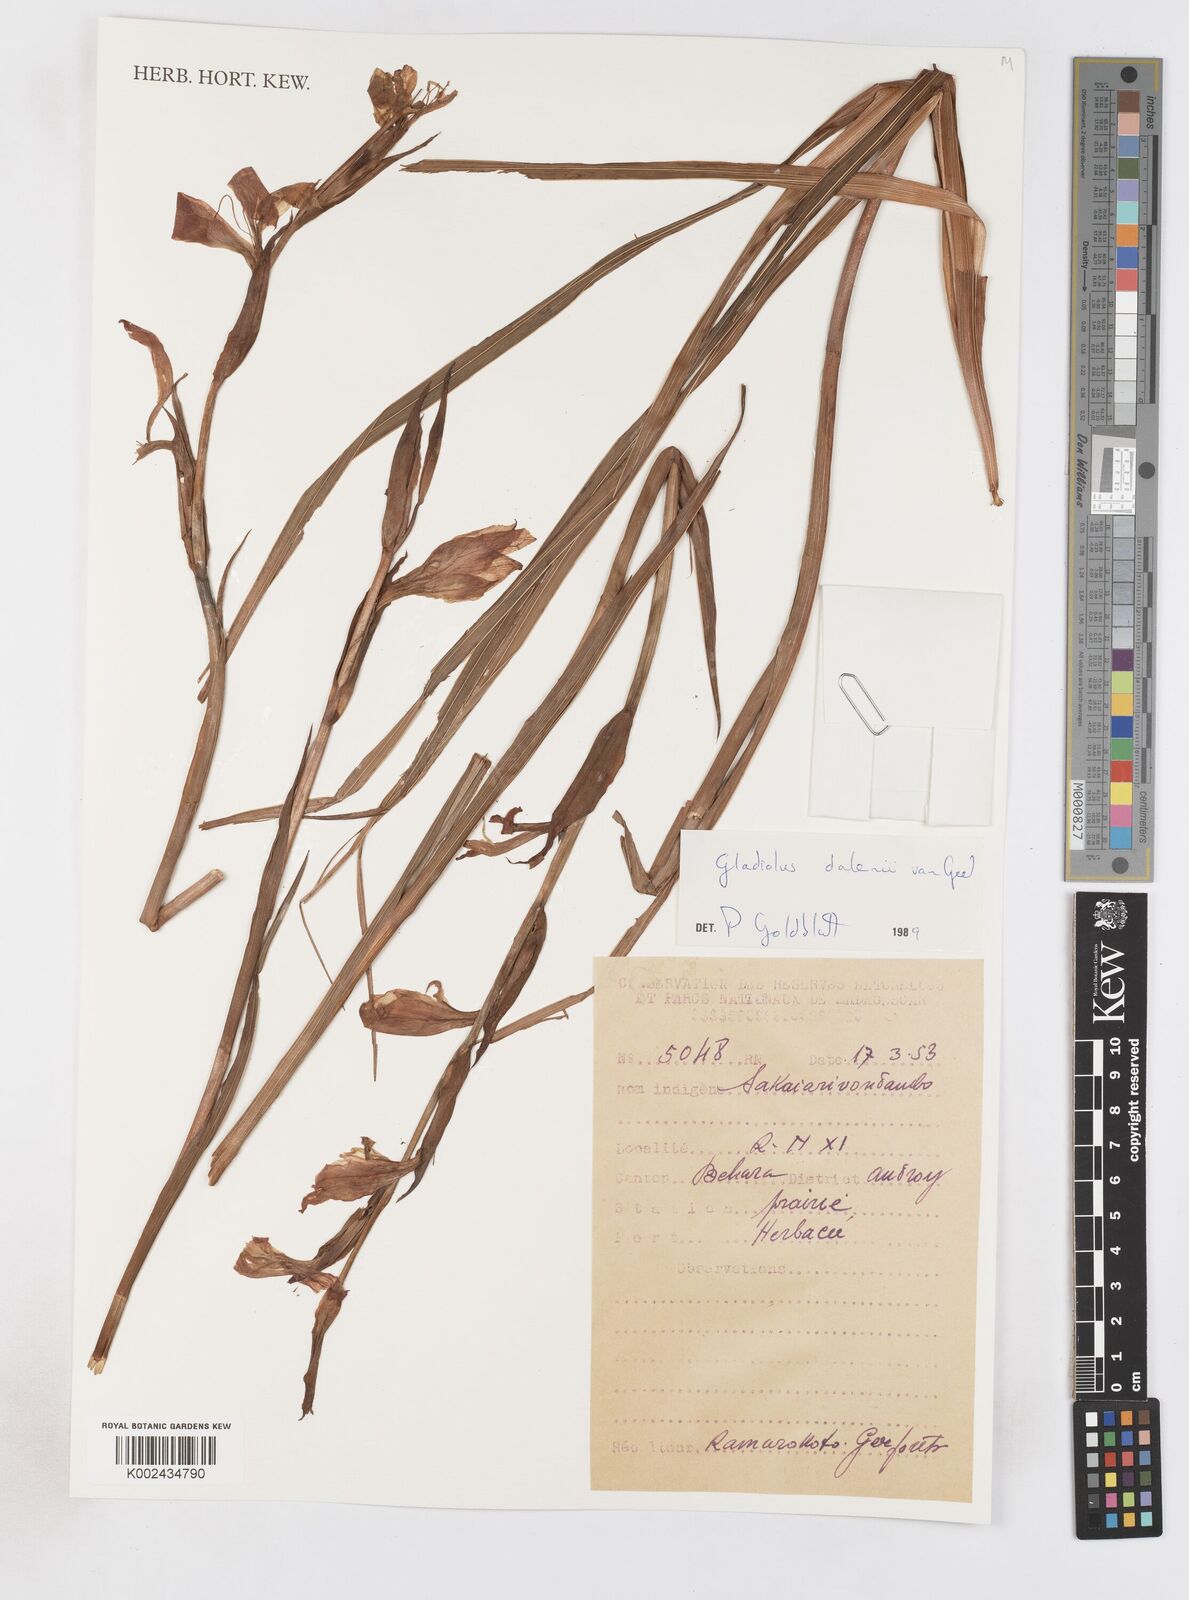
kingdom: Plantae
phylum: Tracheophyta
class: Liliopsida
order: Asparagales
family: Iridaceae
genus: Gladiolus
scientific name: Gladiolus dalenii
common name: Cornflag
